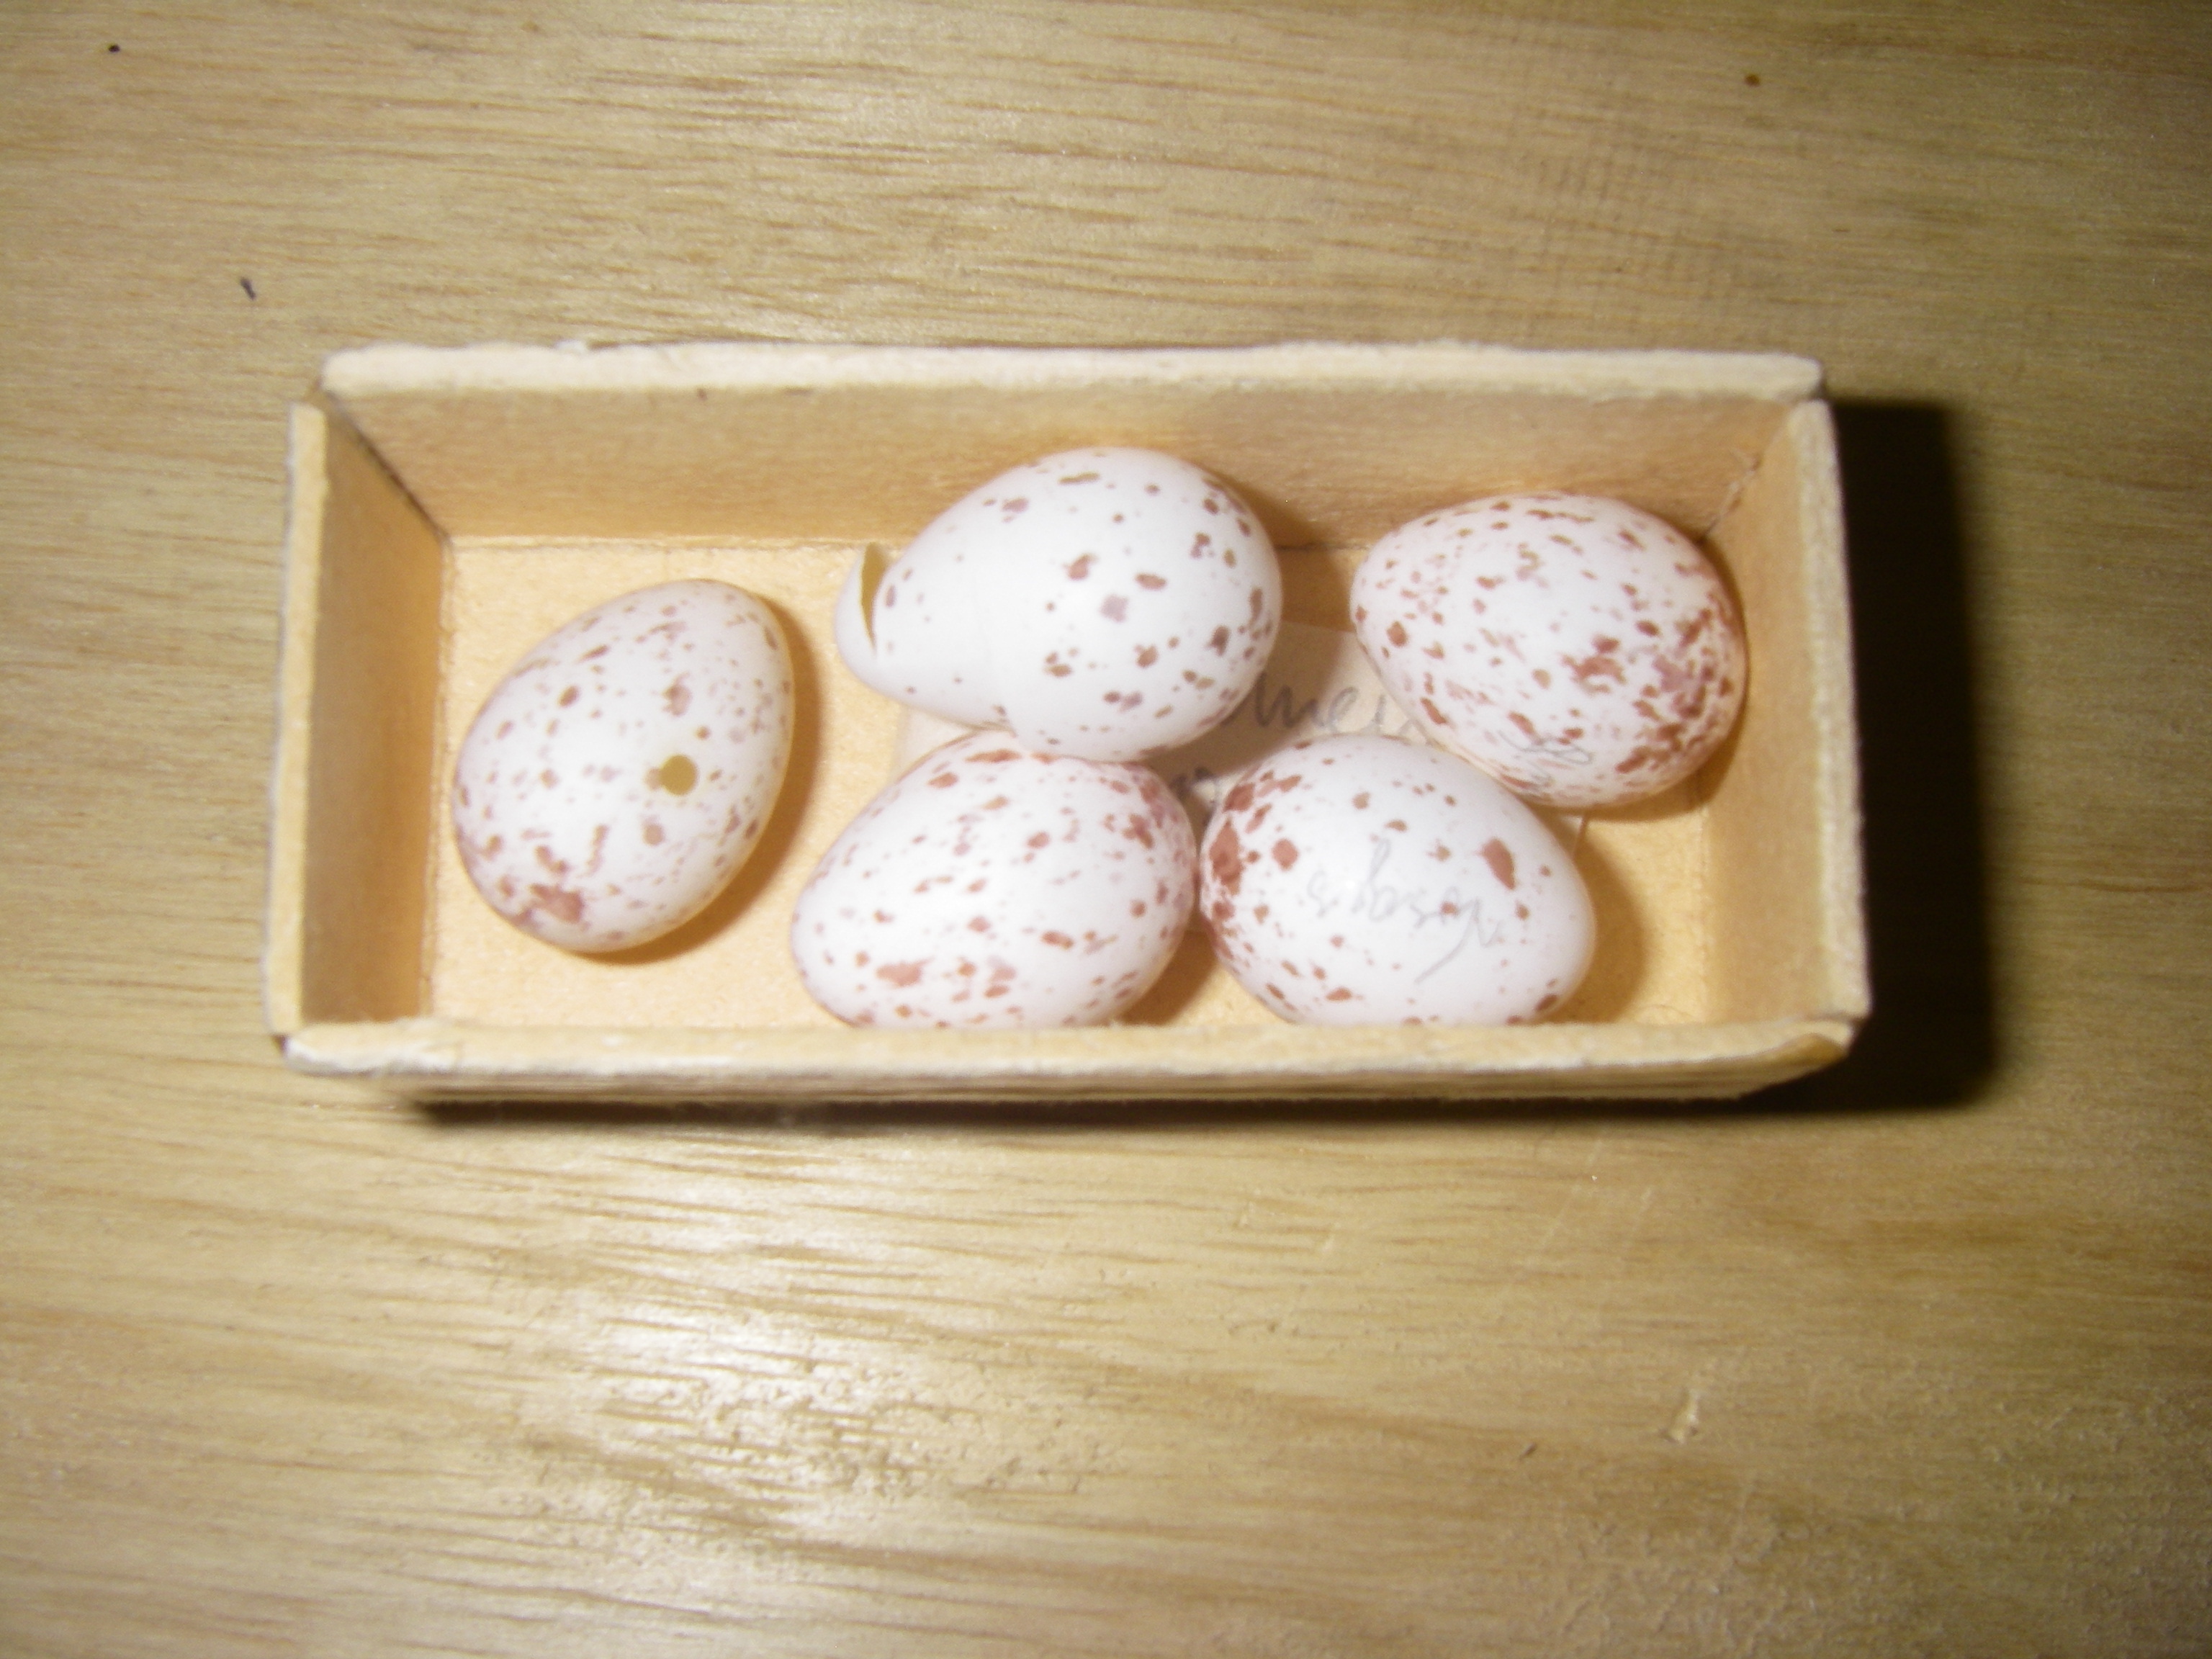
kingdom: Animalia
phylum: Chordata
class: Aves
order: Passeriformes
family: Paridae
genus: Parus
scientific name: Parus major
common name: Great tit
